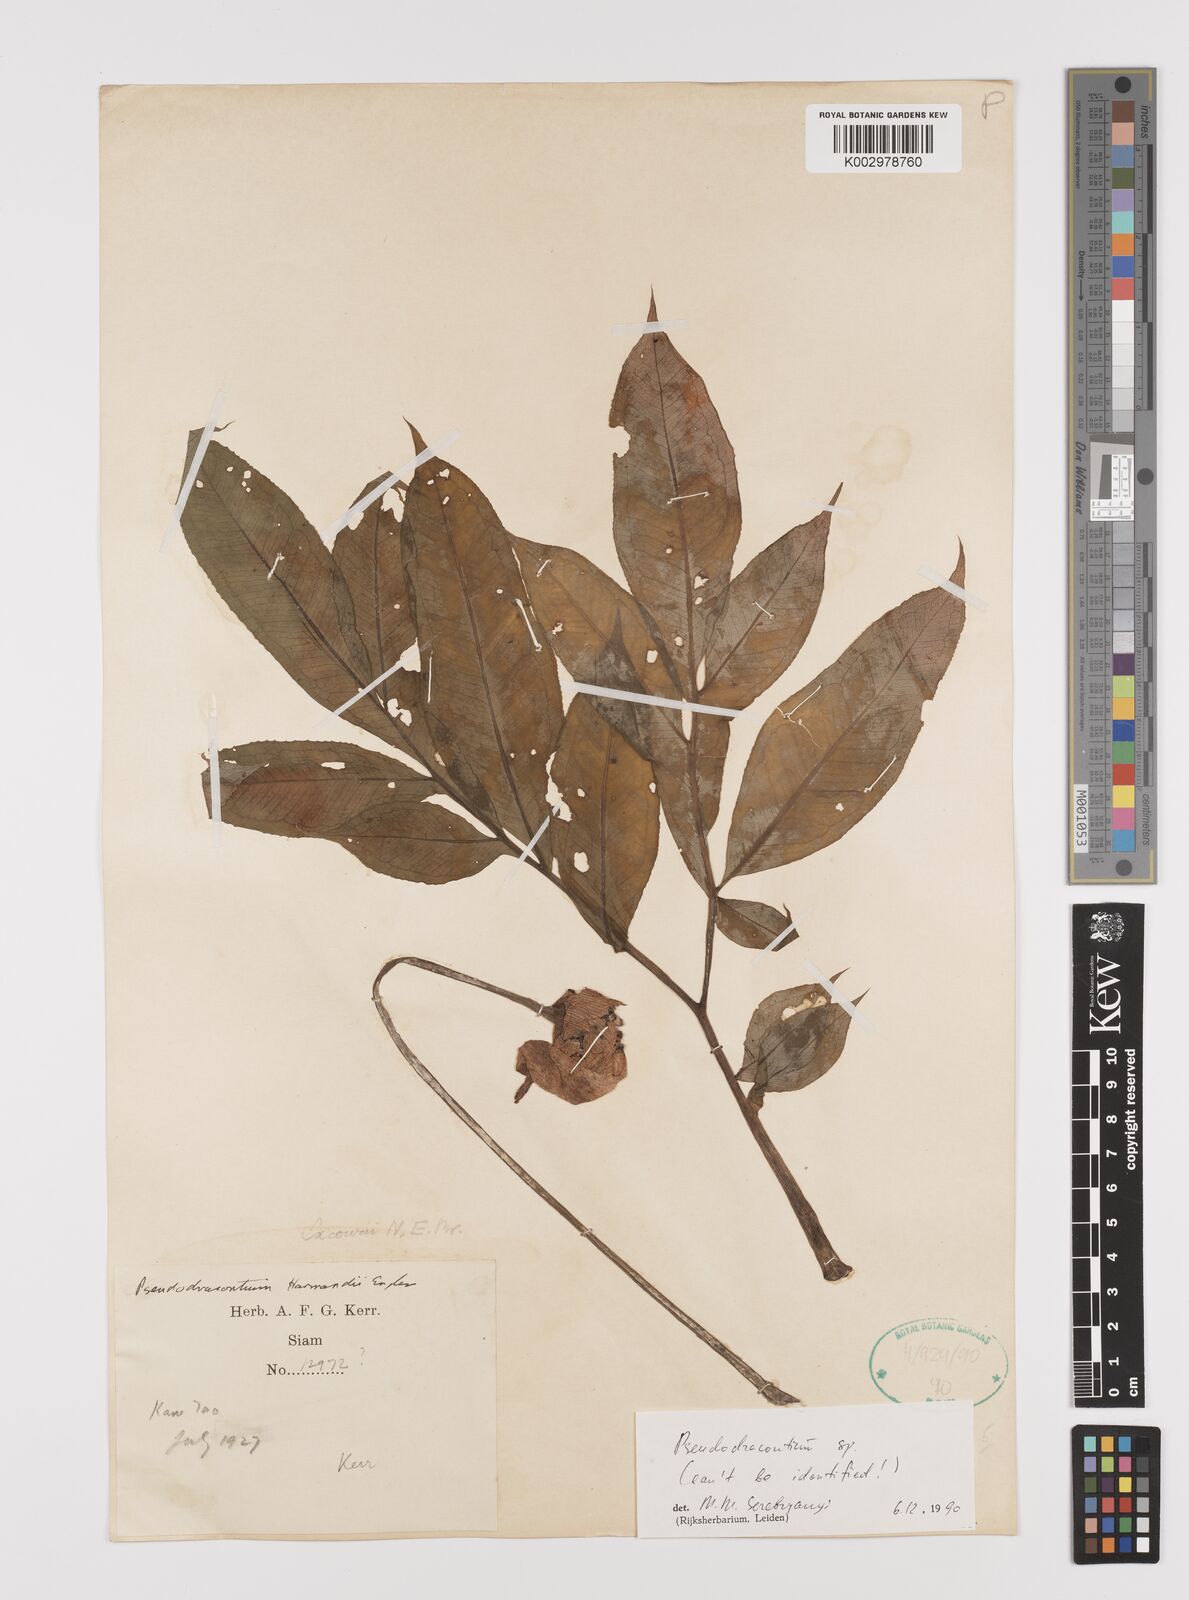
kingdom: Plantae
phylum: Tracheophyta
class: Liliopsida
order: Alismatales
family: Araceae
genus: Amorphophallus
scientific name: Amorphophallus
